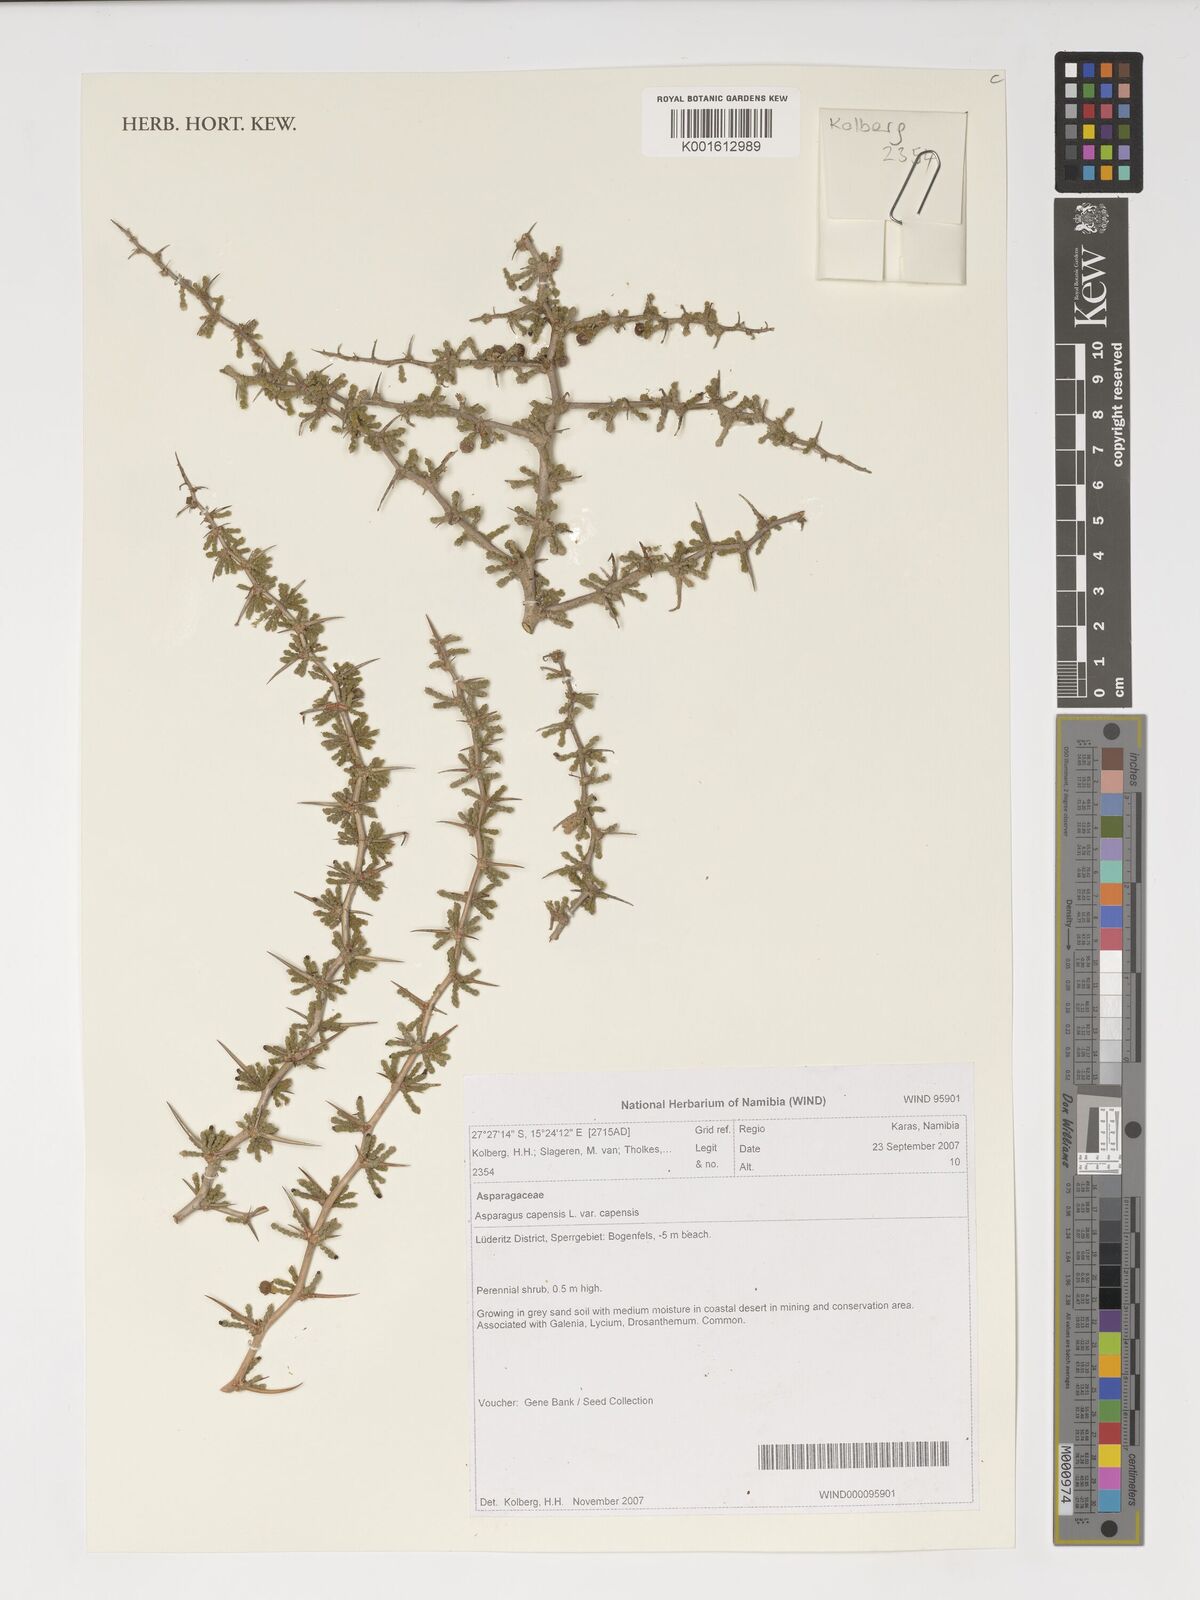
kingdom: Plantae
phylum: Tracheophyta
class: Liliopsida
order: Asparagales
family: Asparagaceae
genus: Asparagus
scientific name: Asparagus capensis
